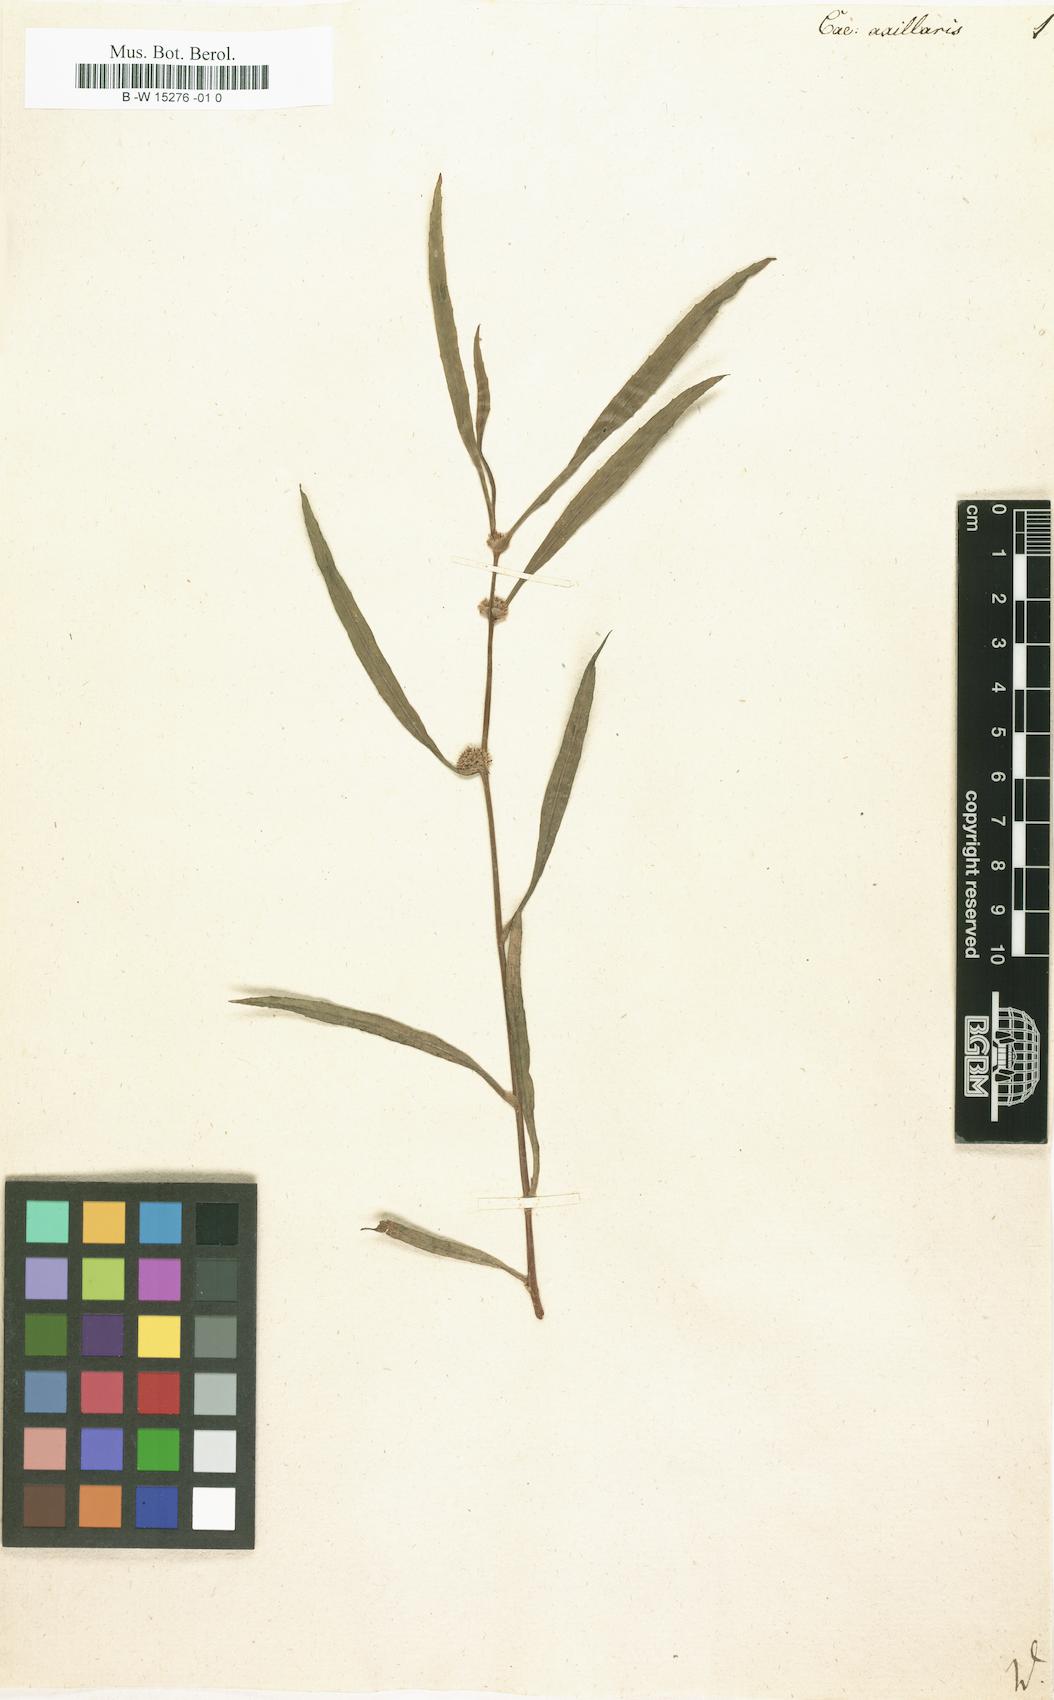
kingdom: Plantae
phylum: Tracheophyta
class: Magnoliopsida
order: Asterales
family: Asteraceae
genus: Caesulia
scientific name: Caesulia
